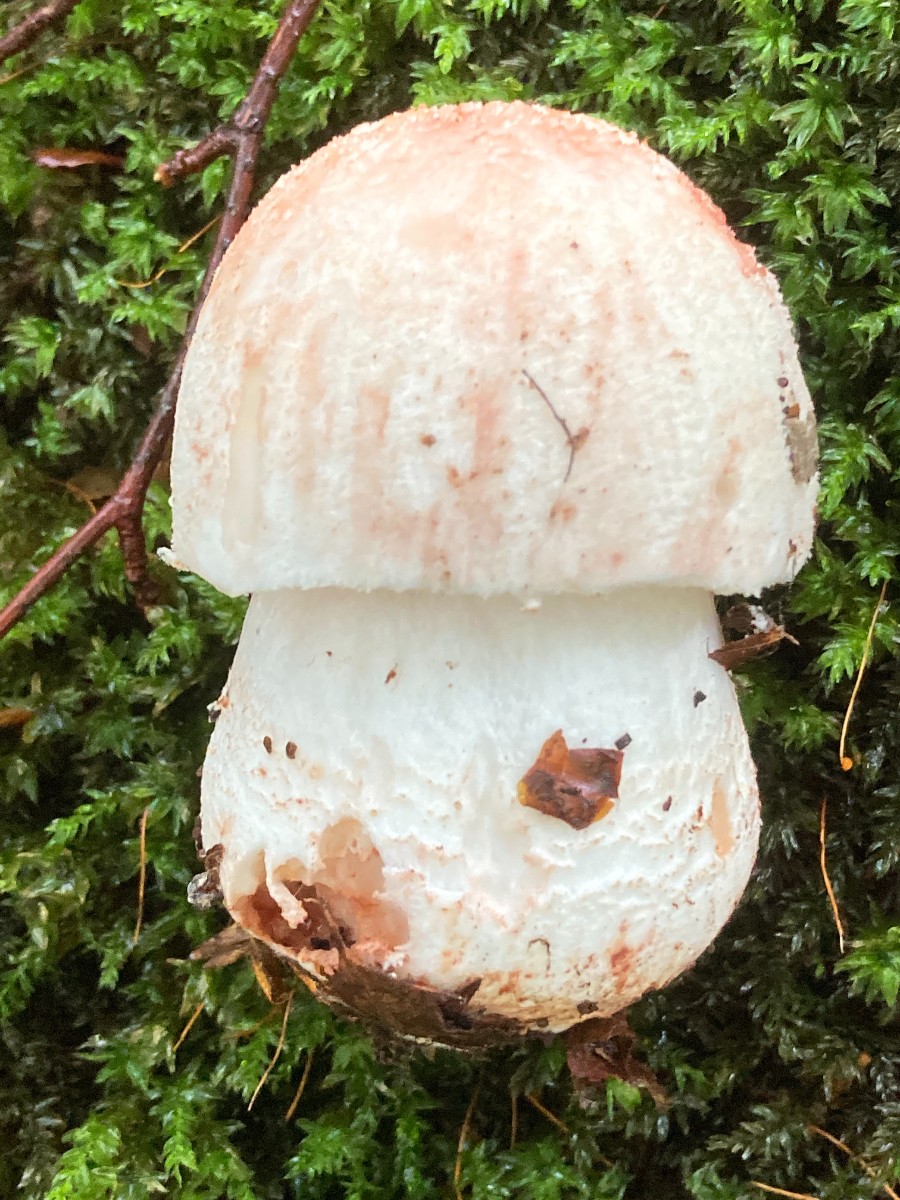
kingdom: Fungi
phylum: Basidiomycota
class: Agaricomycetes
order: Agaricales
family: Amanitaceae
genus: Amanita
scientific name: Amanita rubescens
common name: rødmende fluesvamp
